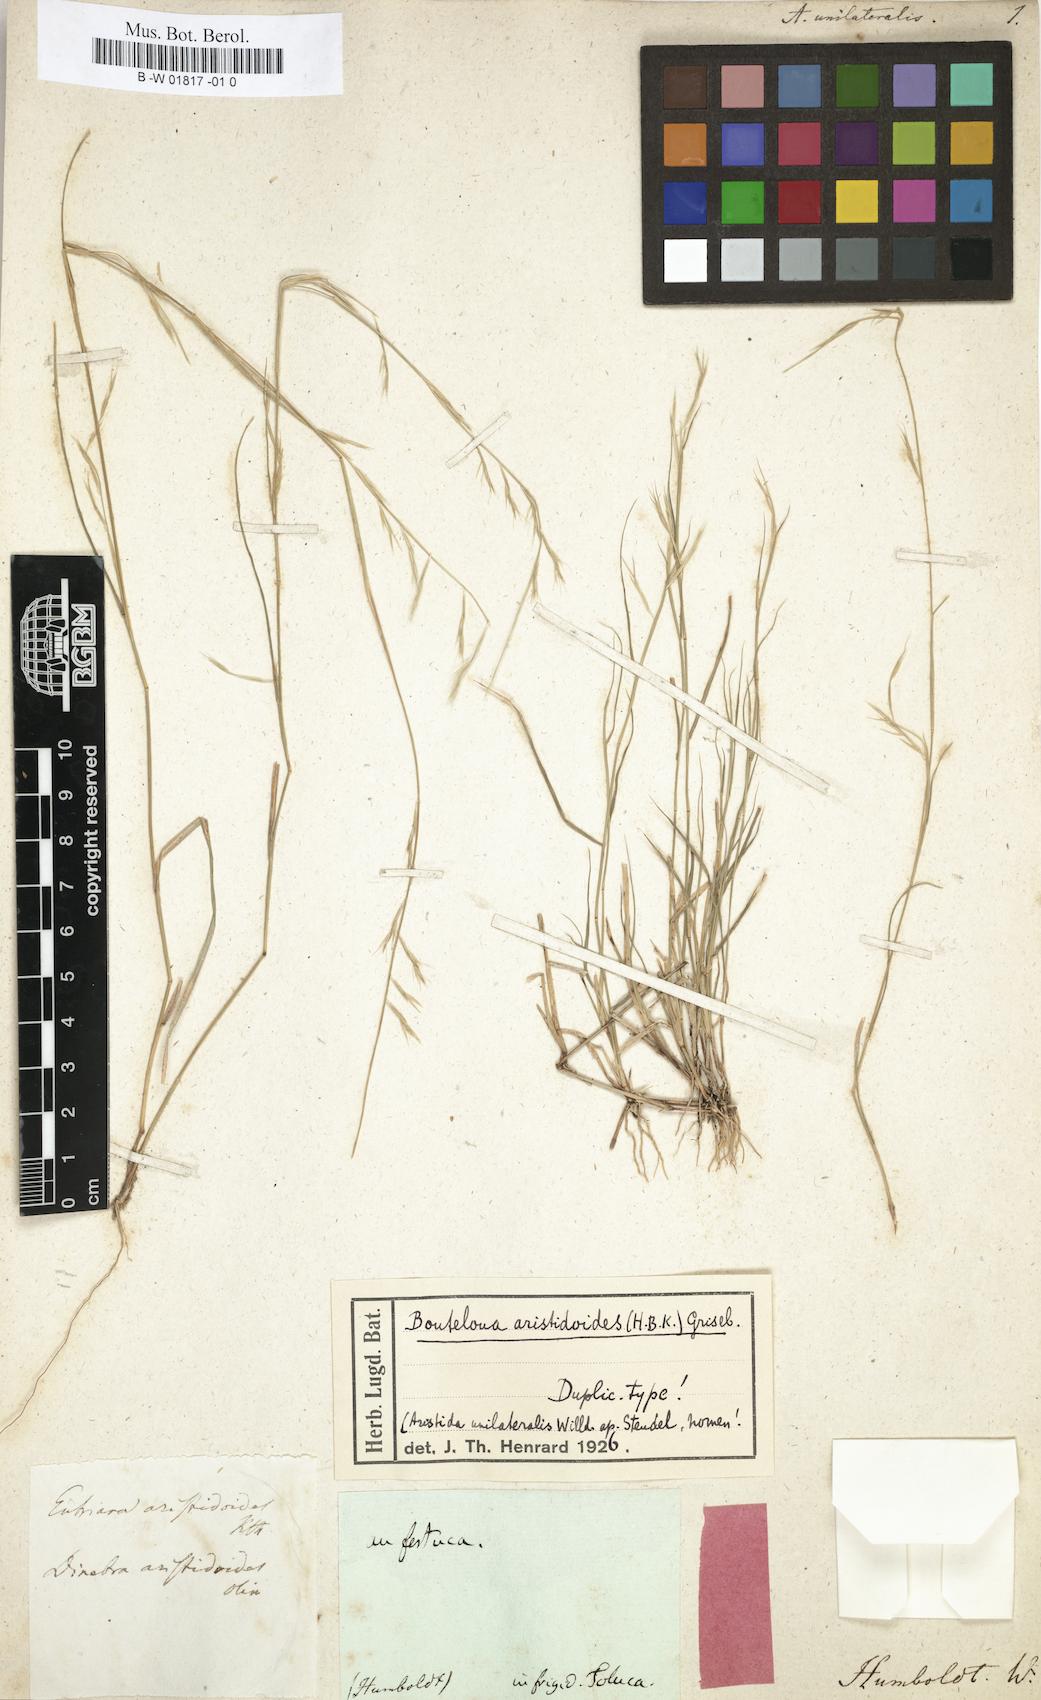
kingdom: Plantae
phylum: Tracheophyta
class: Liliopsida
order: Poales
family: Poaceae
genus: Bouteloua
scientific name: Bouteloua aristidoides
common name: Needle grama
